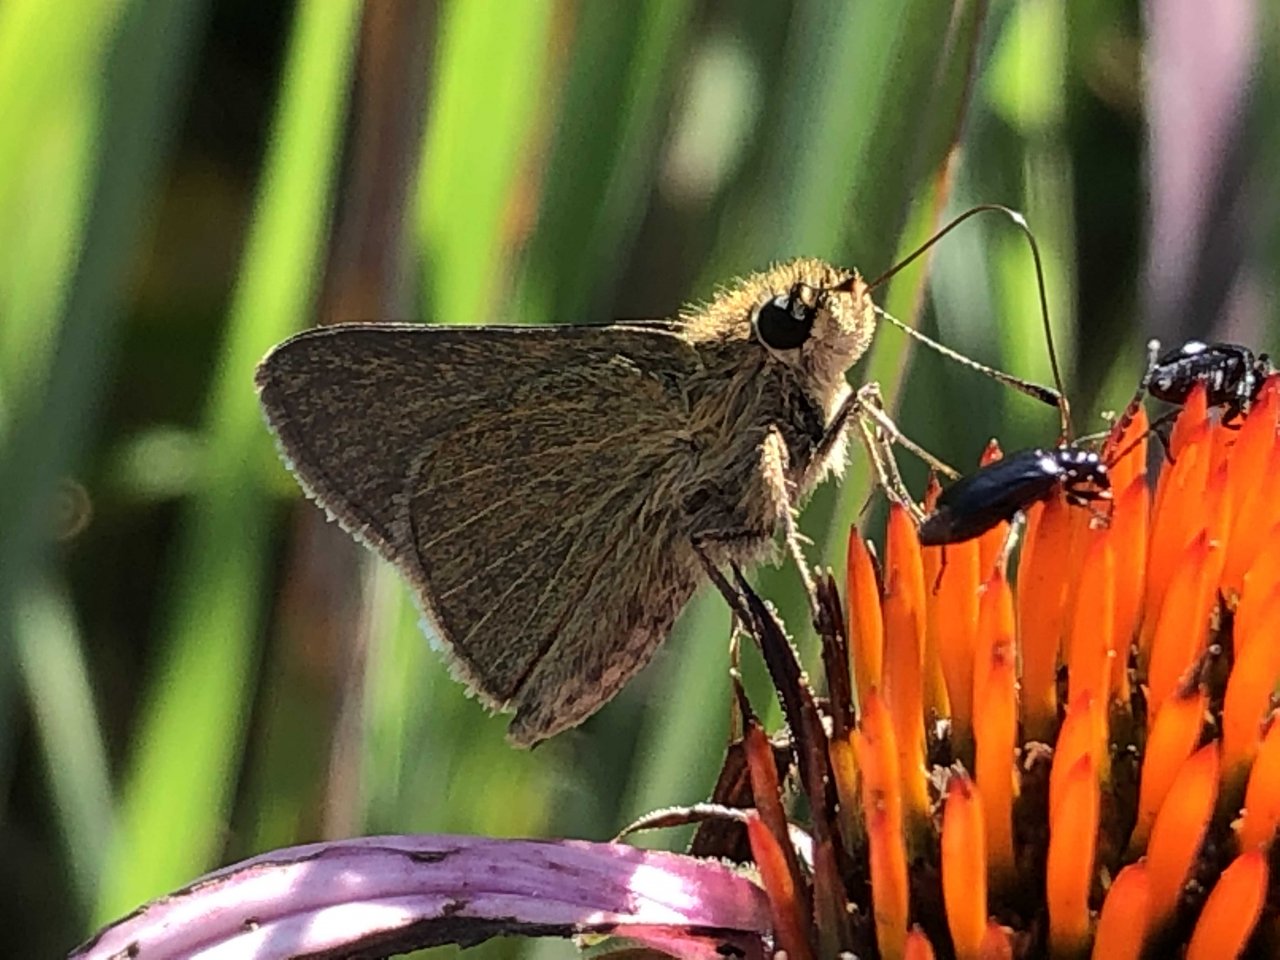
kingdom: Animalia
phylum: Arthropoda
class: Insecta
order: Lepidoptera
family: Hesperiidae
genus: Nastra
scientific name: Nastra lherminier
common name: Swarthy Skipper
